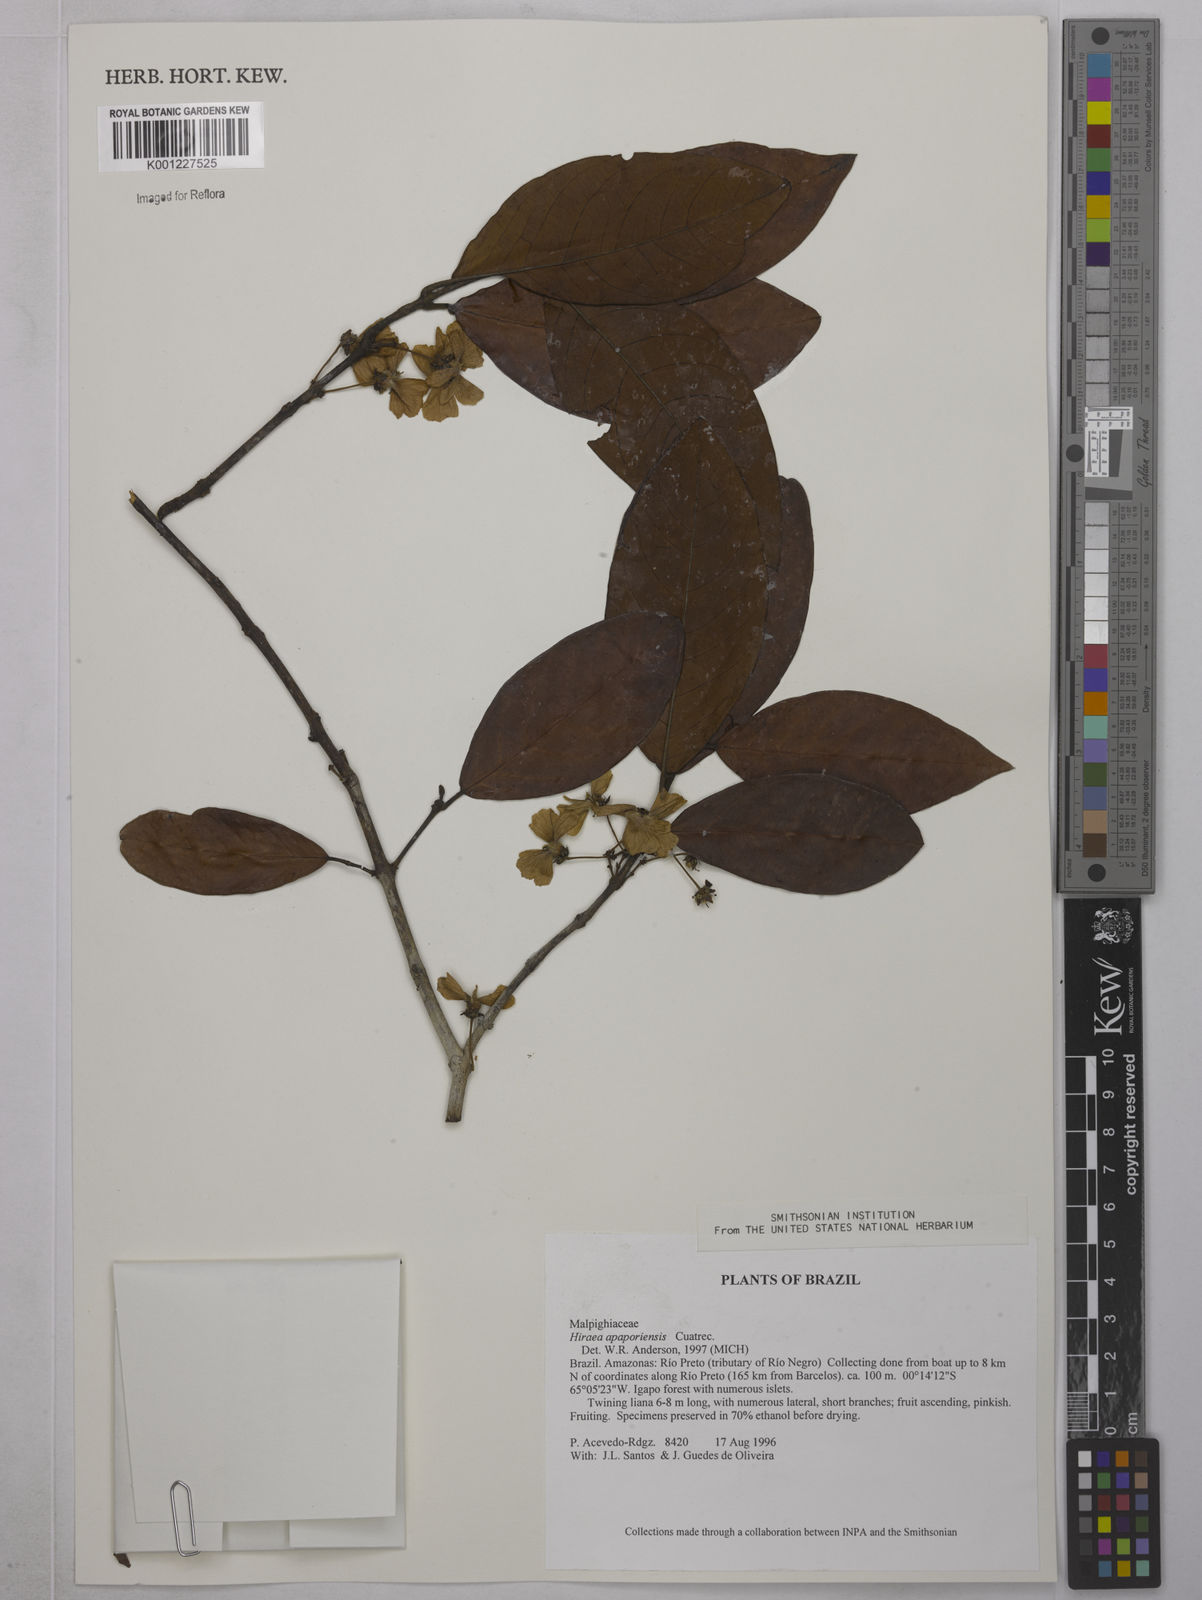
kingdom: Plantae
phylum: Tracheophyta
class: Magnoliopsida
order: Malpighiales
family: Malpighiaceae
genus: Hiraea
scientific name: Hiraea apaporiensis
